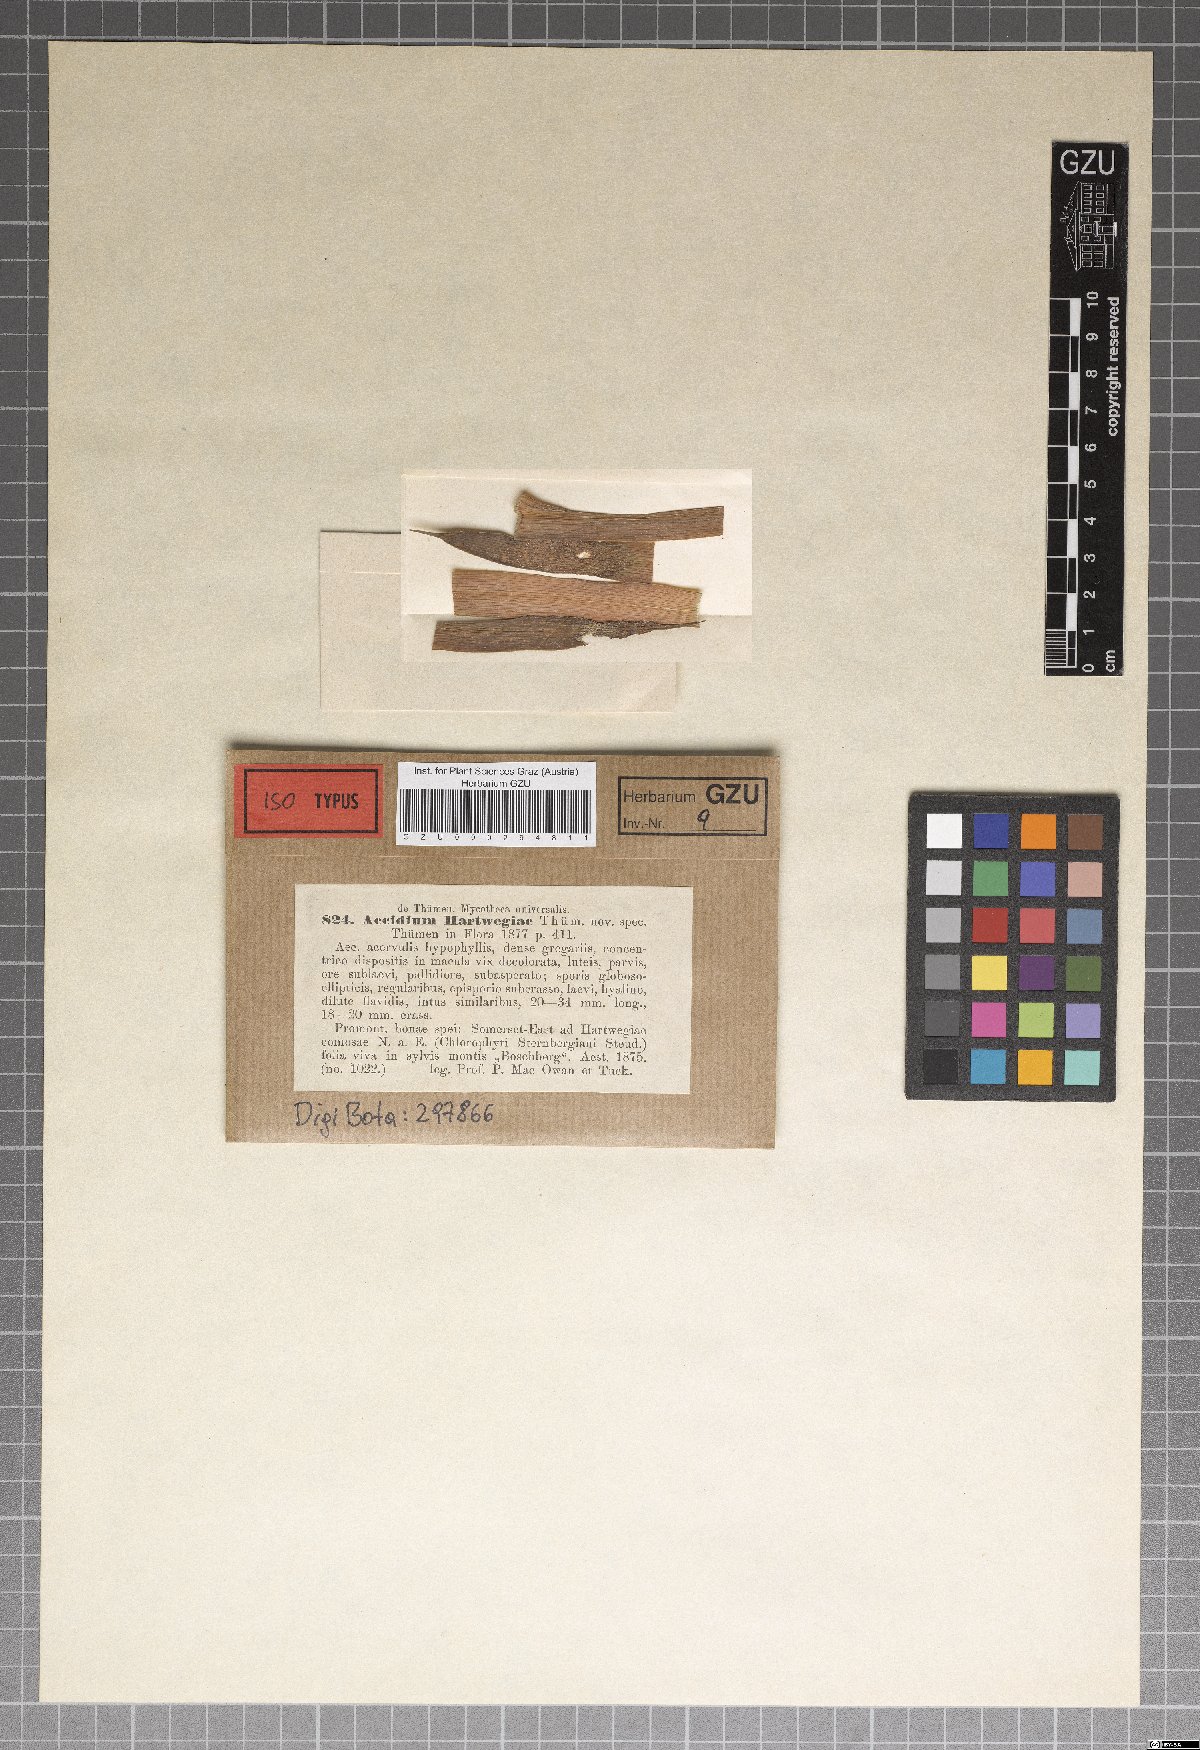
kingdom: Fungi
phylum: Basidiomycota
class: Pucciniomycetes
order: Pucciniales
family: Pucciniaceae
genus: Aecidium
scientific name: Aecidium
